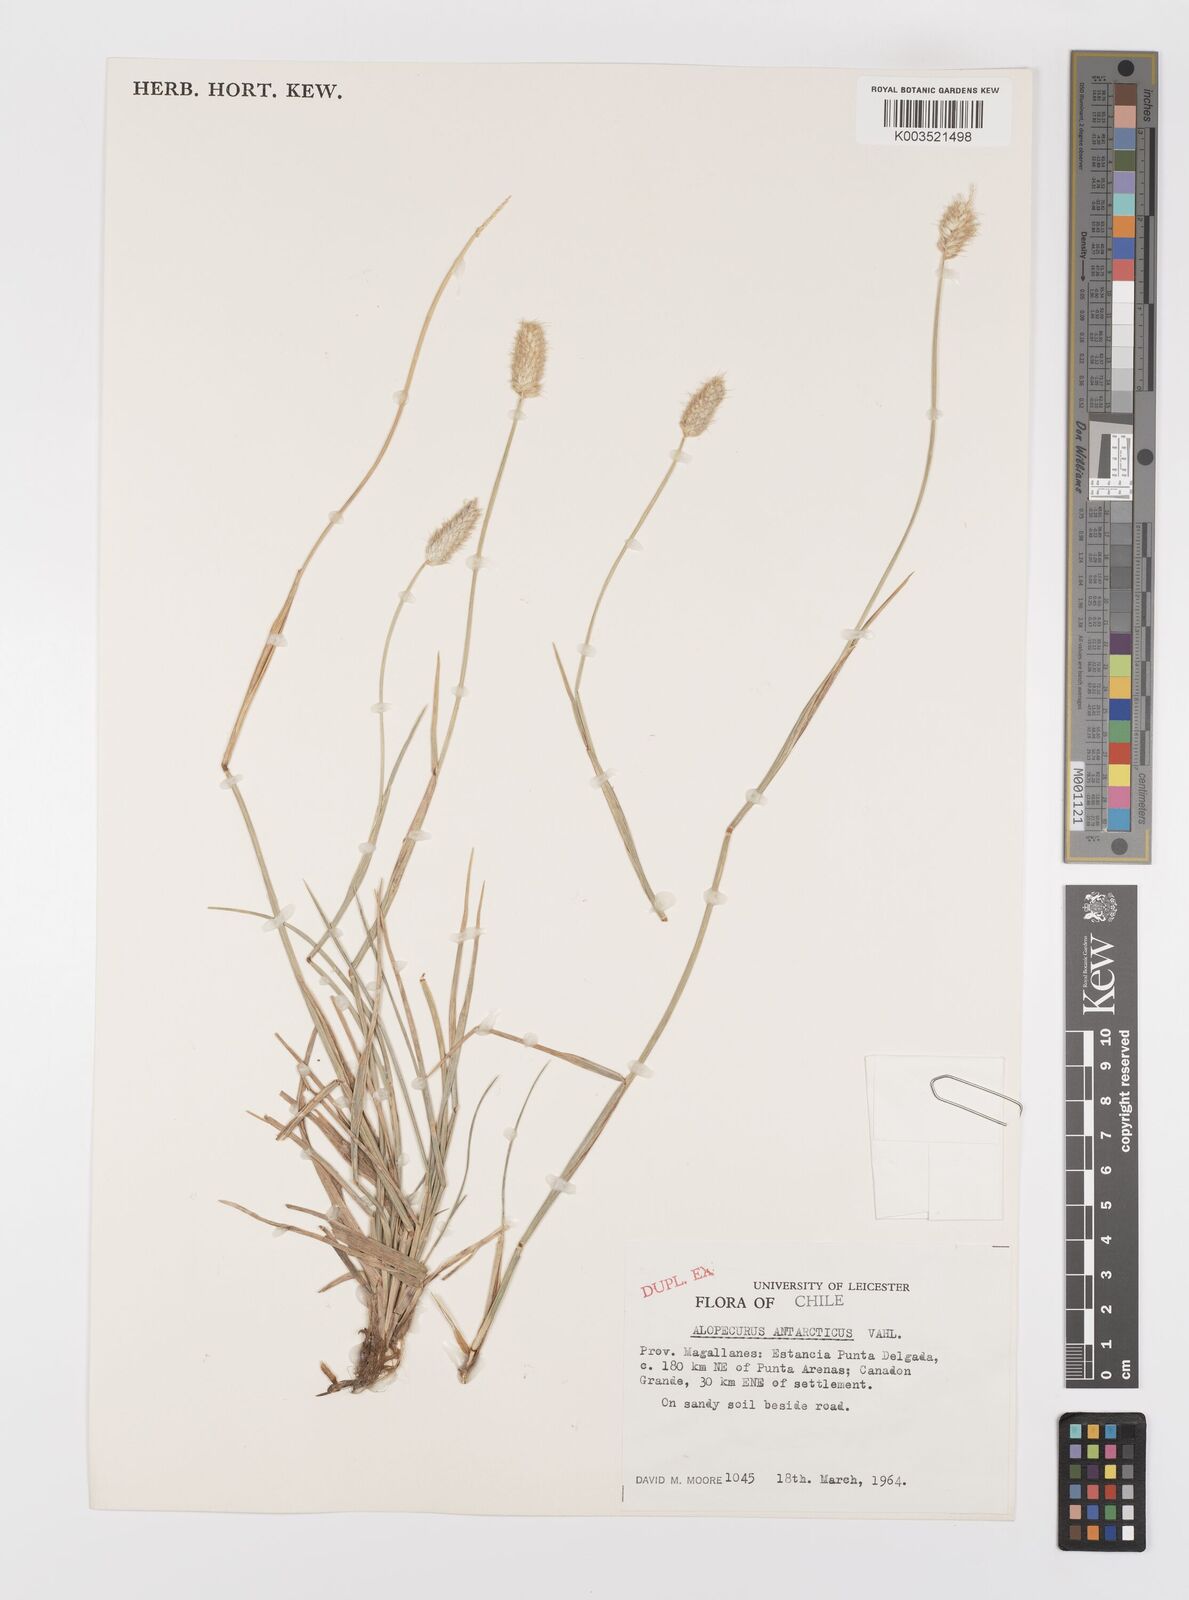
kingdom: Plantae
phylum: Tracheophyta
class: Liliopsida
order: Poales
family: Poaceae
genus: Alopecurus
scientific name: Alopecurus magellanicus
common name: Alpine foxtail
